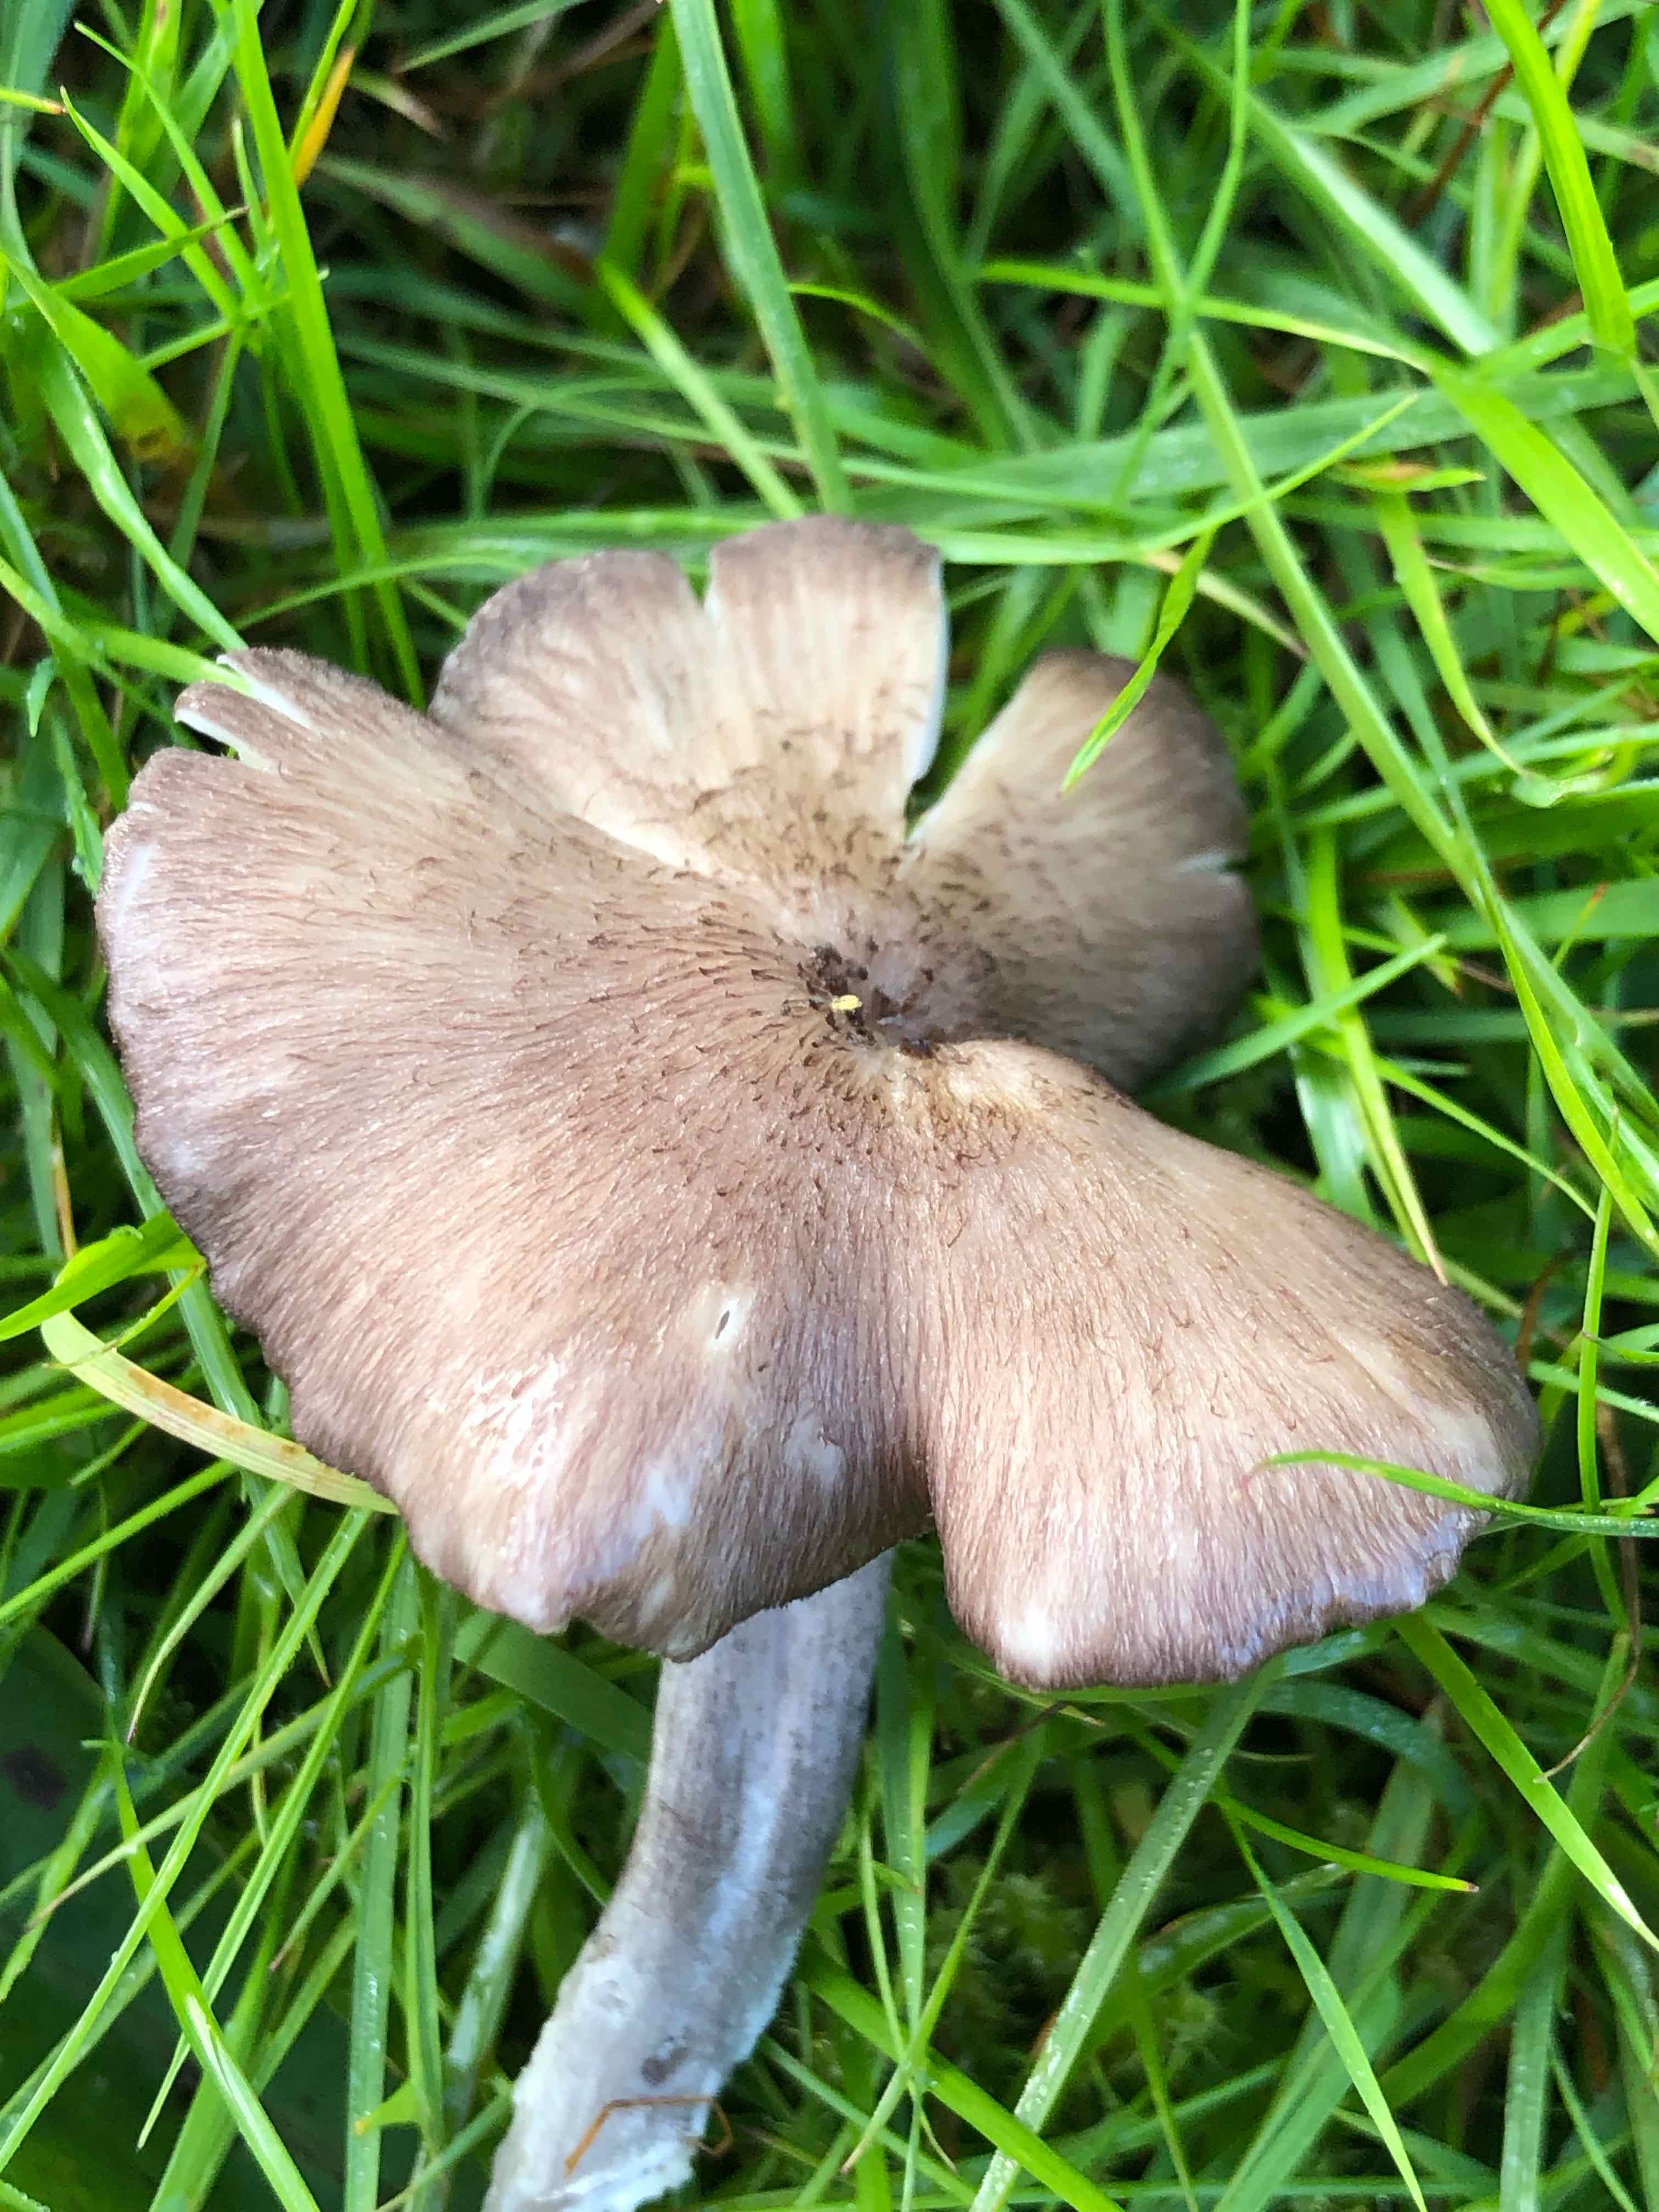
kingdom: Fungi
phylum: Basidiomycota
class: Agaricomycetes
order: Agaricales
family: Entolomataceae
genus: Entoloma
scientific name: Entoloma griseocyaneum
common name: gråblå rødblad
